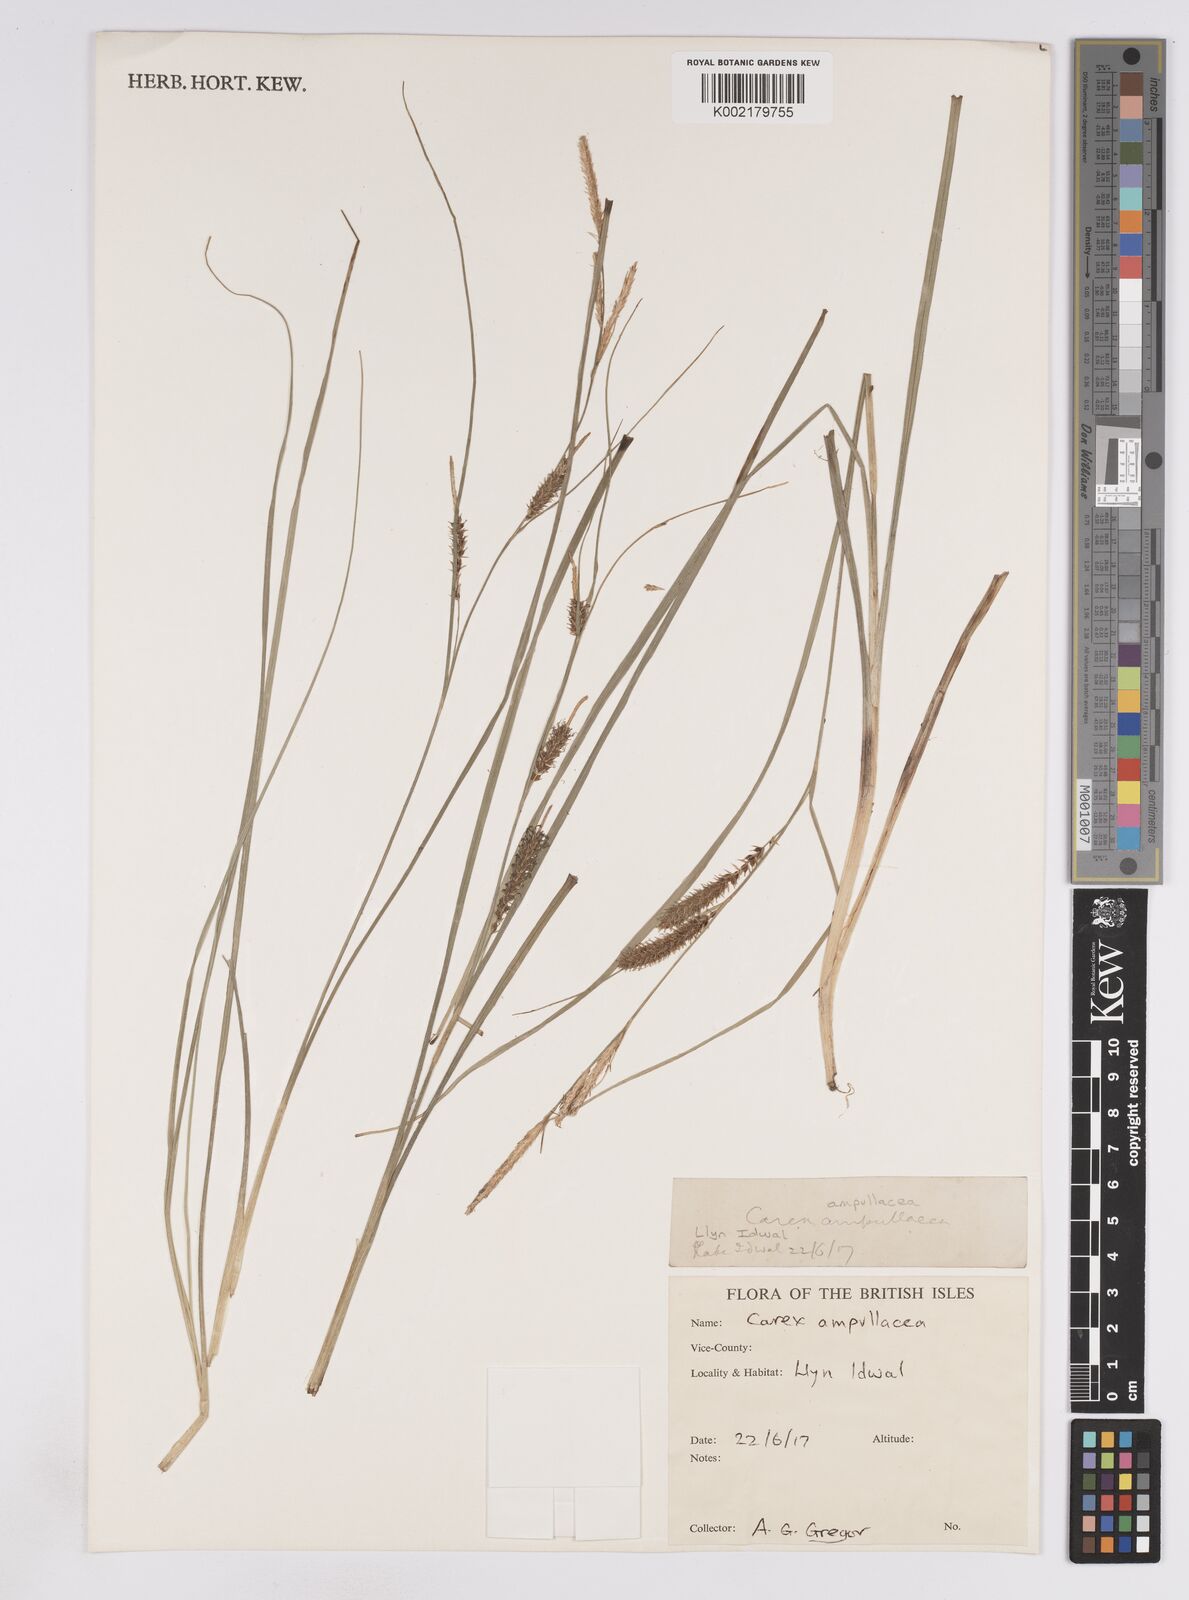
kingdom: Plantae
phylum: Tracheophyta
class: Liliopsida
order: Poales
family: Cyperaceae
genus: Carex
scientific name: Carex rostrata
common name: Bottle sedge
